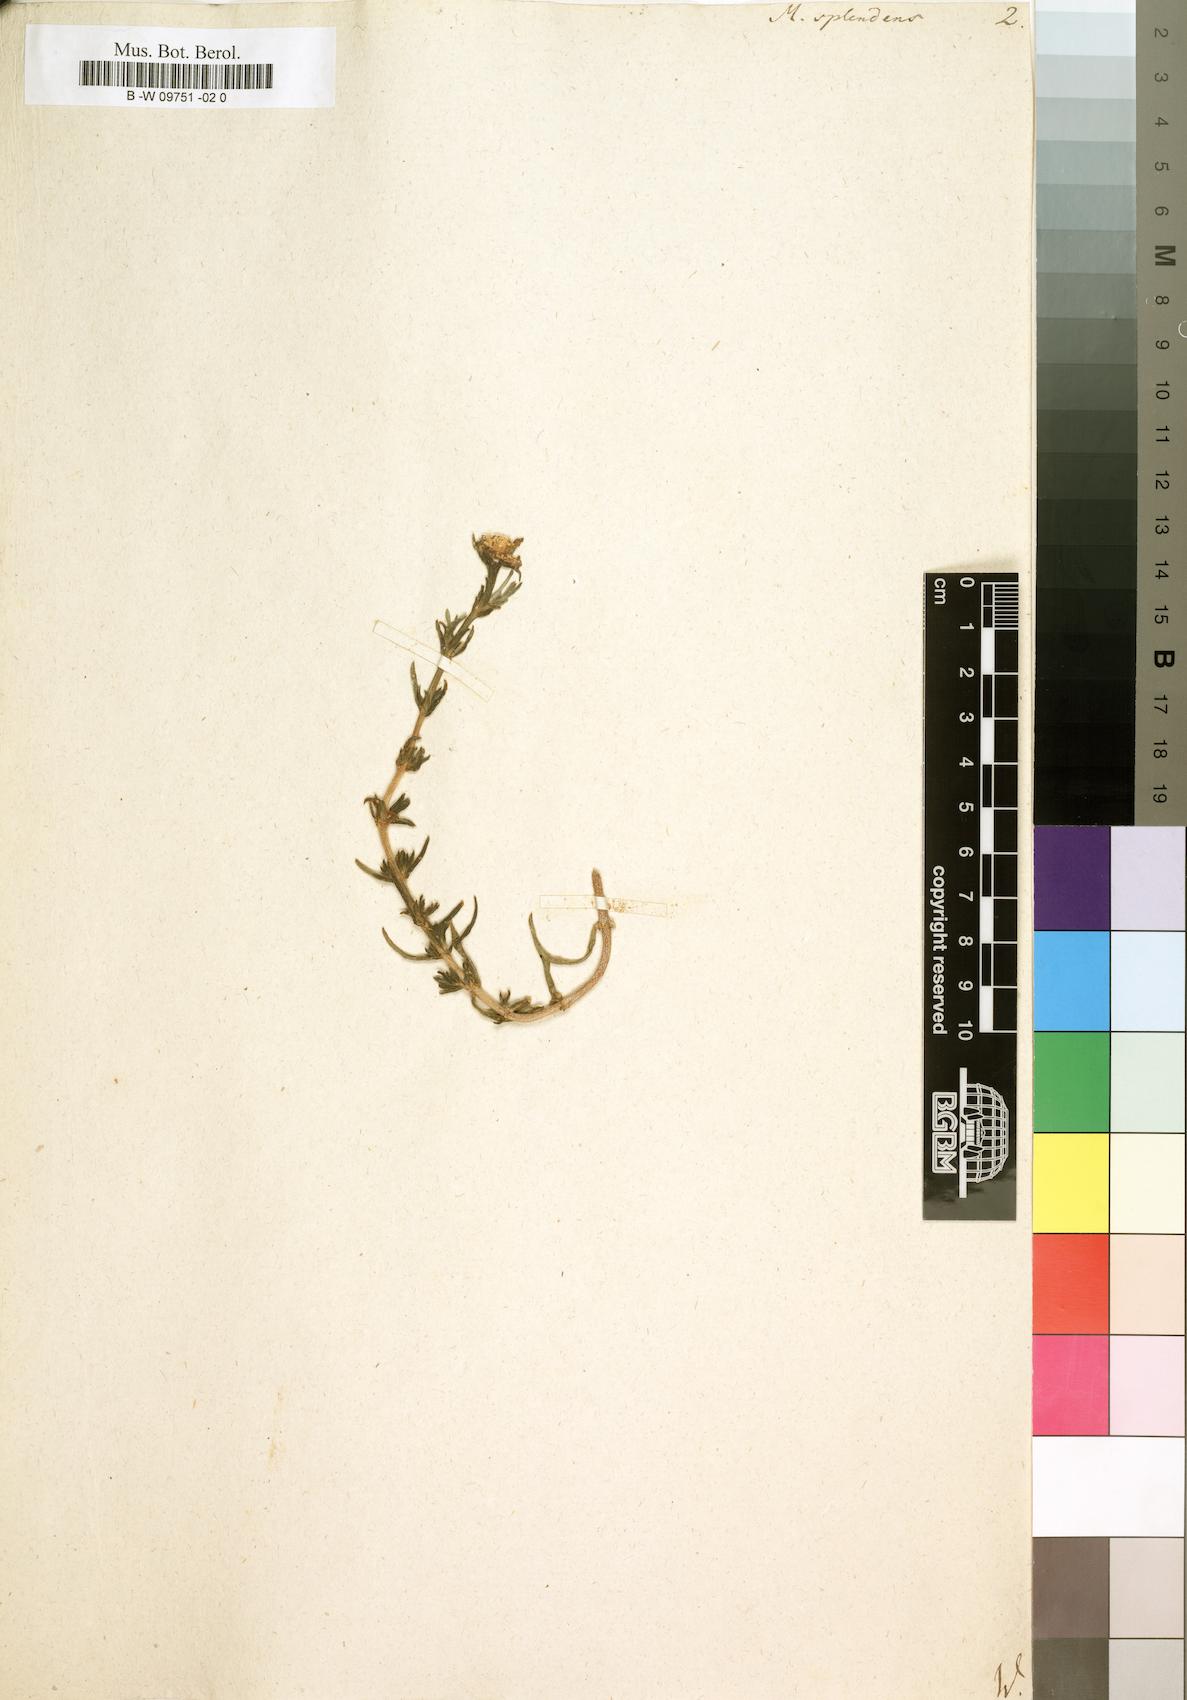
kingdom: Plantae
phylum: Tracheophyta
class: Magnoliopsida
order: Caryophyllales
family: Aizoaceae
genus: Mesembryanthemum
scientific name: Mesembryanthemum splendens
